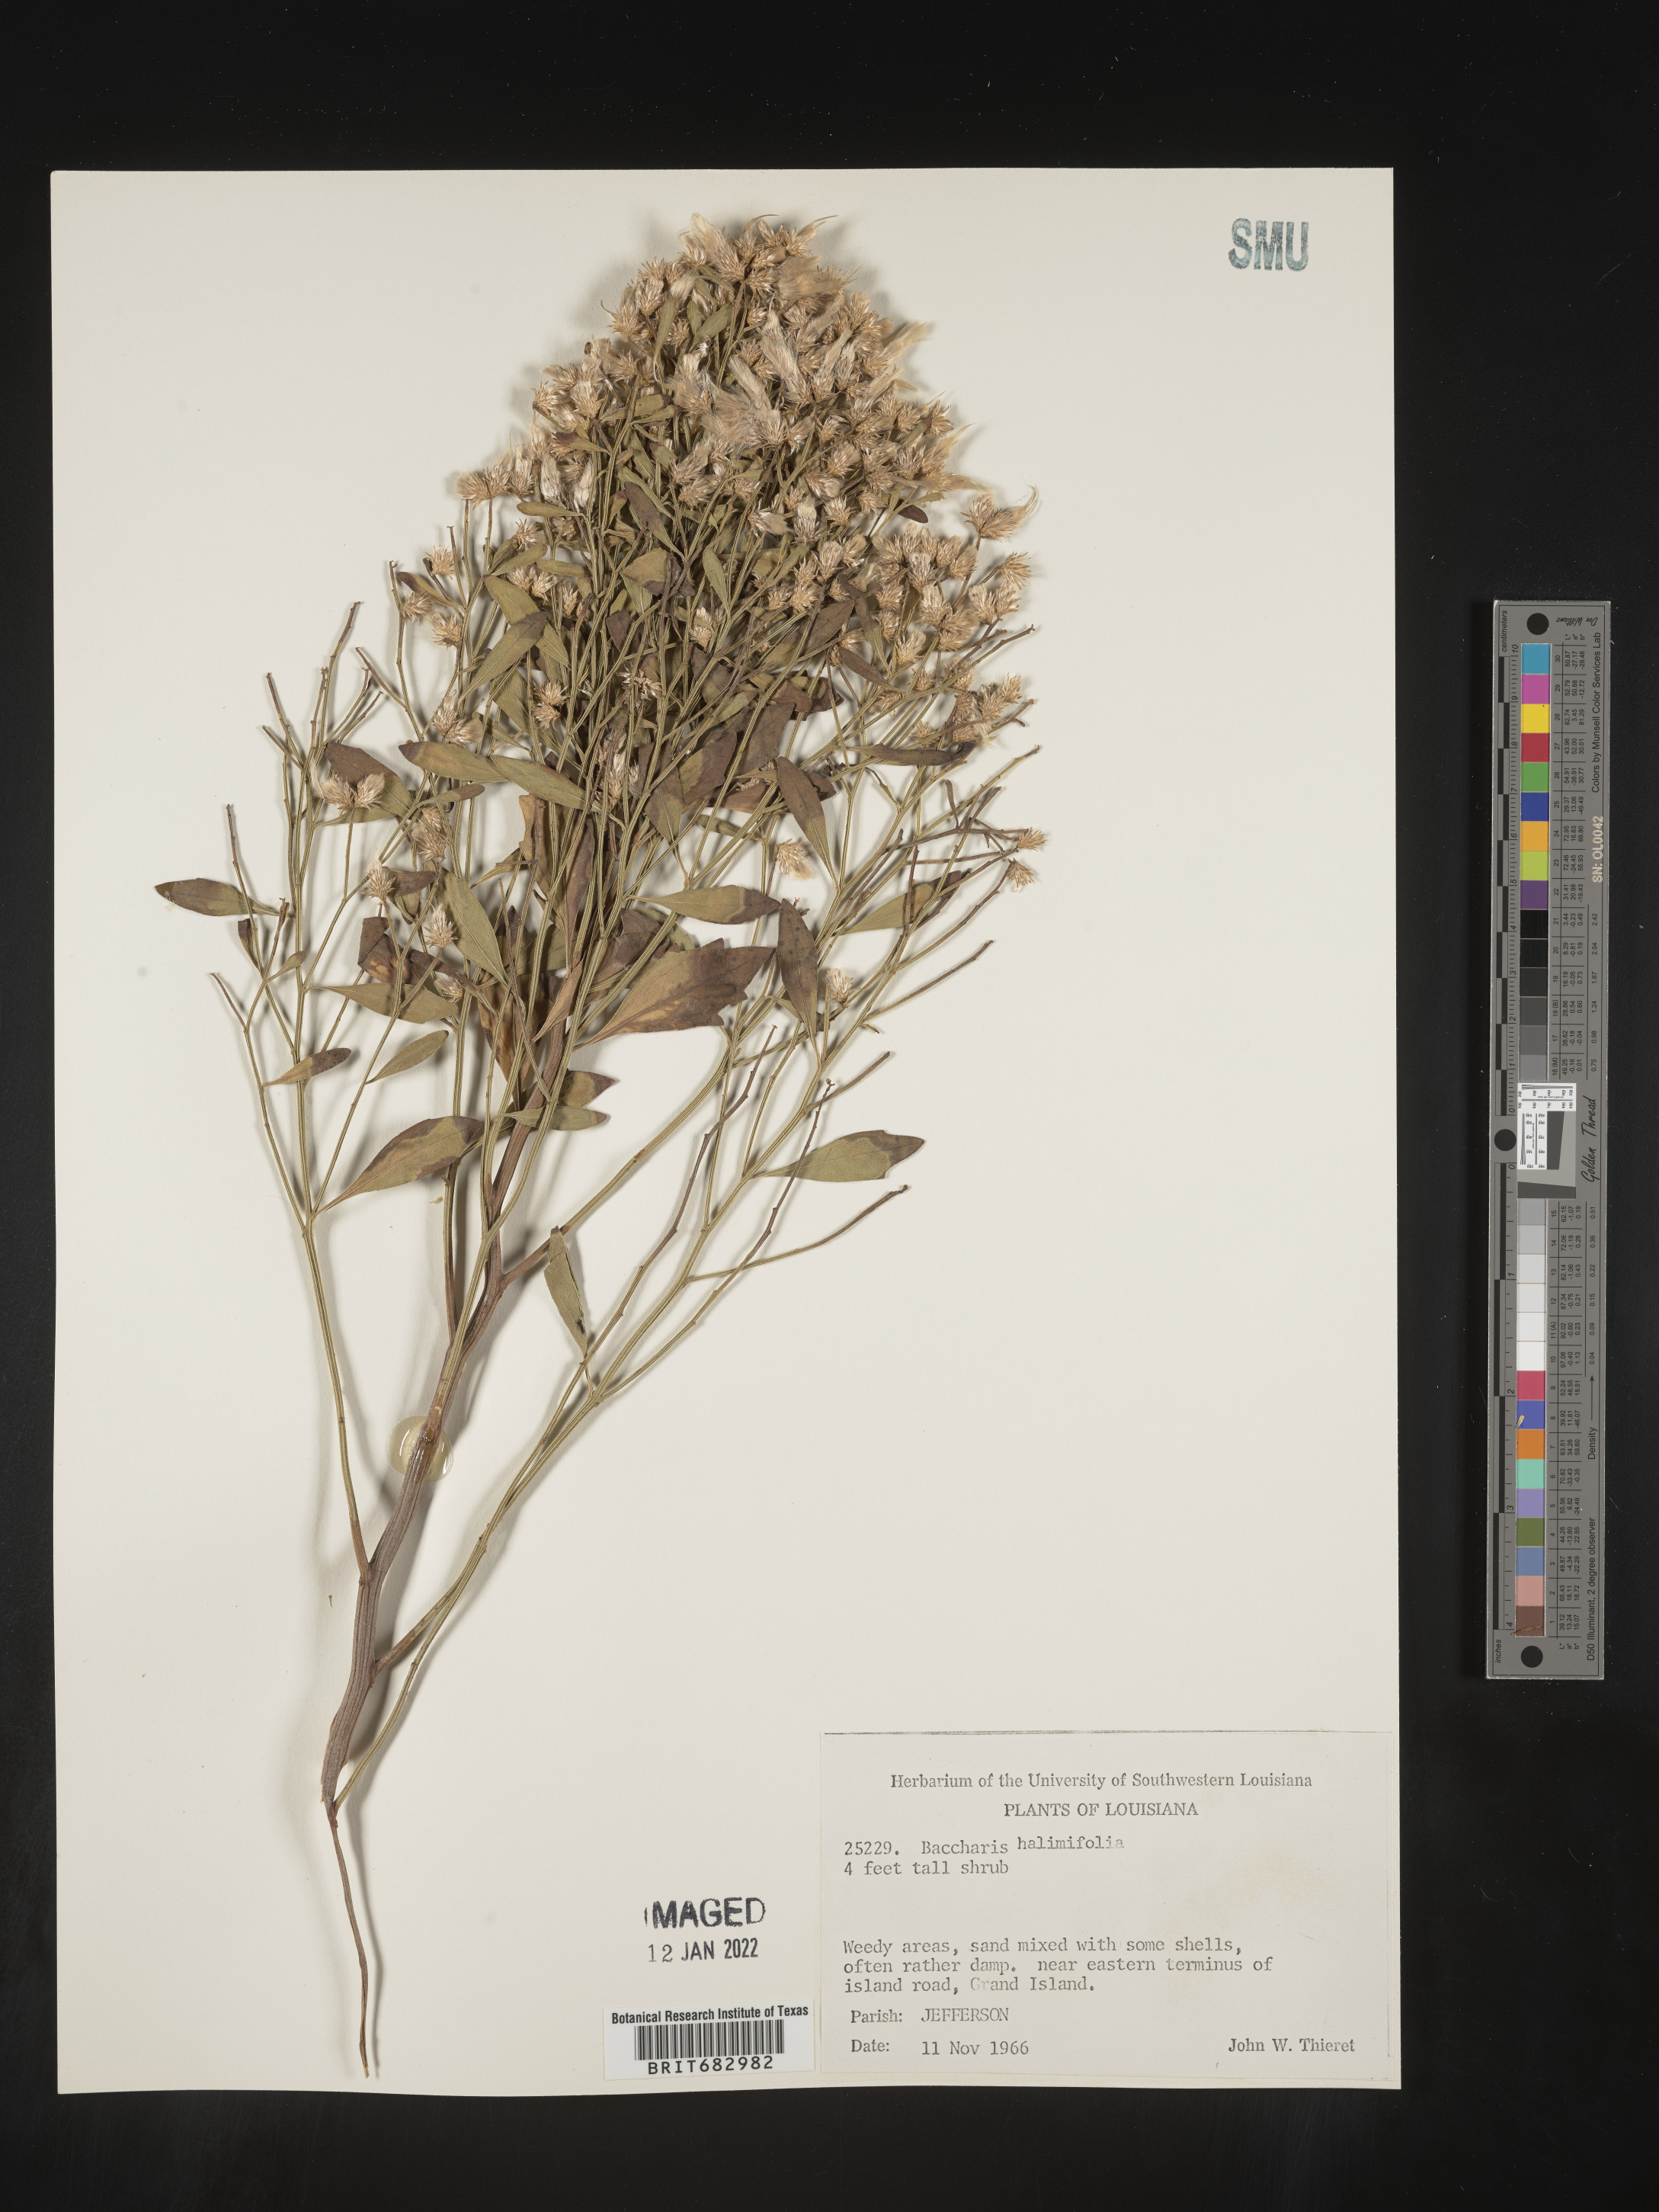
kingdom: Plantae
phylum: Tracheophyta
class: Magnoliopsida
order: Asterales
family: Asteraceae
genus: Nidorella
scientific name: Nidorella ivifolia
